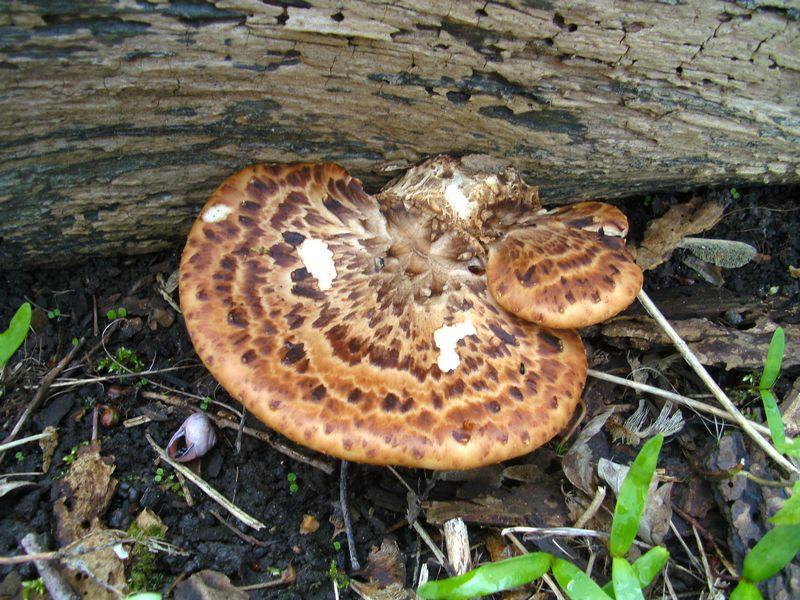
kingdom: Fungi
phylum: Basidiomycota
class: Agaricomycetes
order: Polyporales
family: Polyporaceae
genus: Cerioporus
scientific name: Cerioporus squamosus
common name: skællet stilkporesvamp
